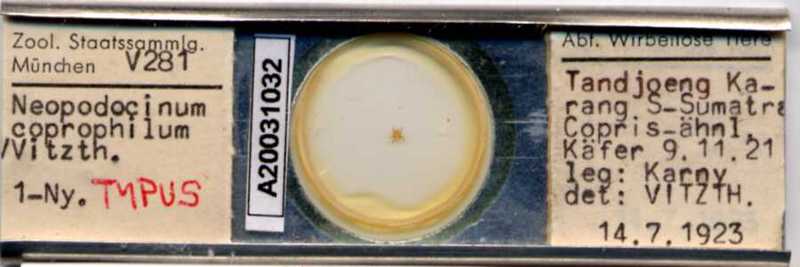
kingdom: Animalia
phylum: Arthropoda
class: Arachnida
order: Mesostigmata
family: Macrochelidae
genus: Neopodocinum
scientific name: Neopodocinum
